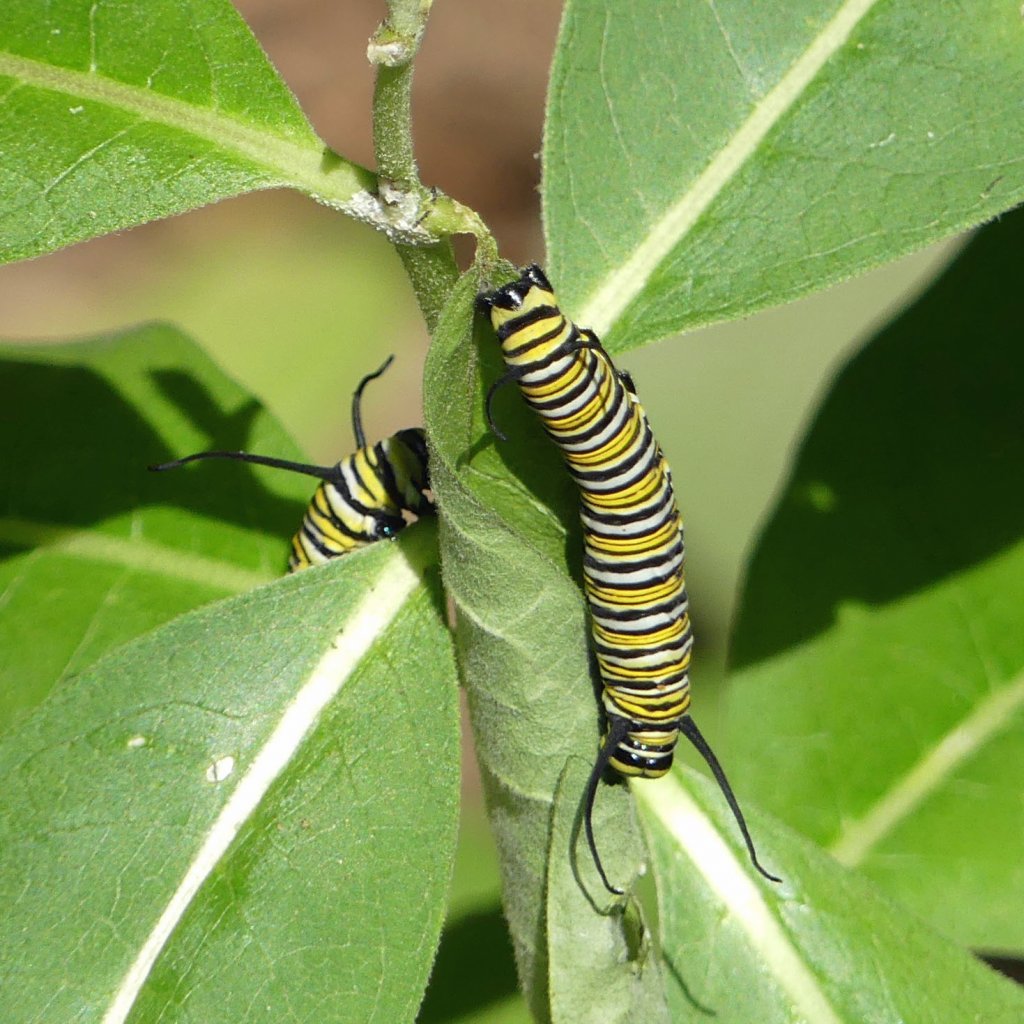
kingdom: Animalia
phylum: Arthropoda
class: Insecta
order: Lepidoptera
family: Nymphalidae
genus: Danaus
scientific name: Danaus plexippus
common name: Monarch
